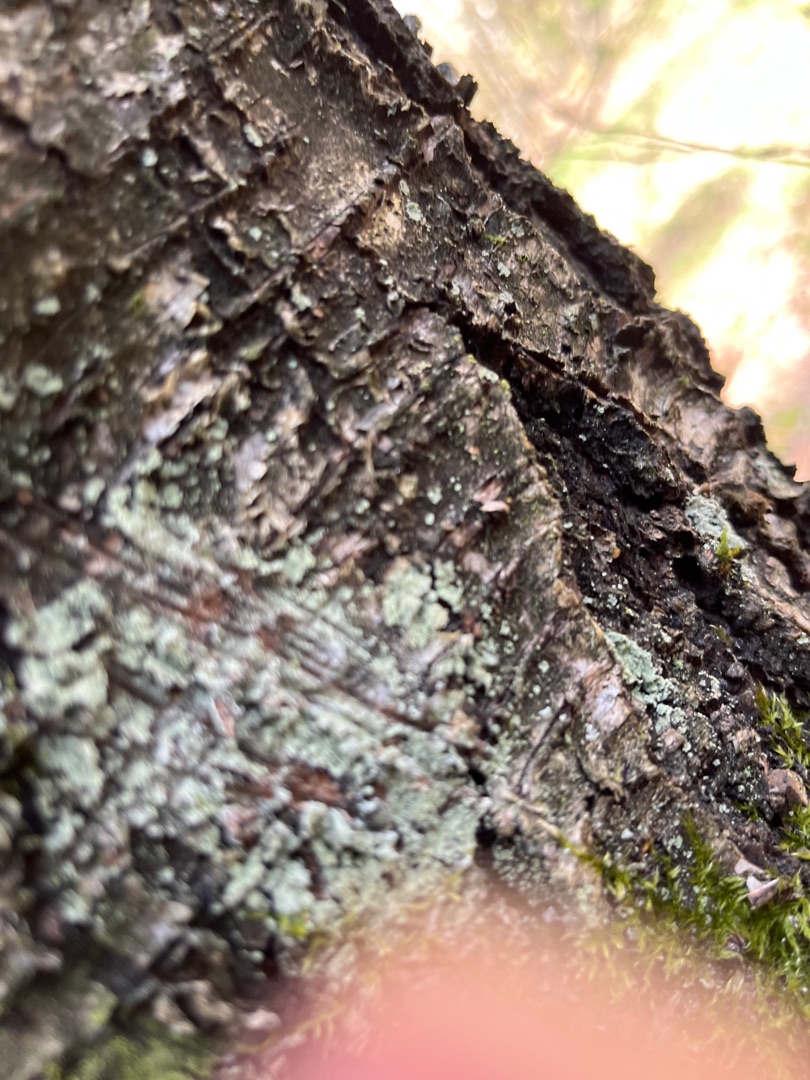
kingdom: Fungi
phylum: Ascomycota
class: Lecanoromycetes
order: Lecanorales
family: Stereocaulaceae
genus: Lepraria
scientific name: Lepraria
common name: Støvlav
